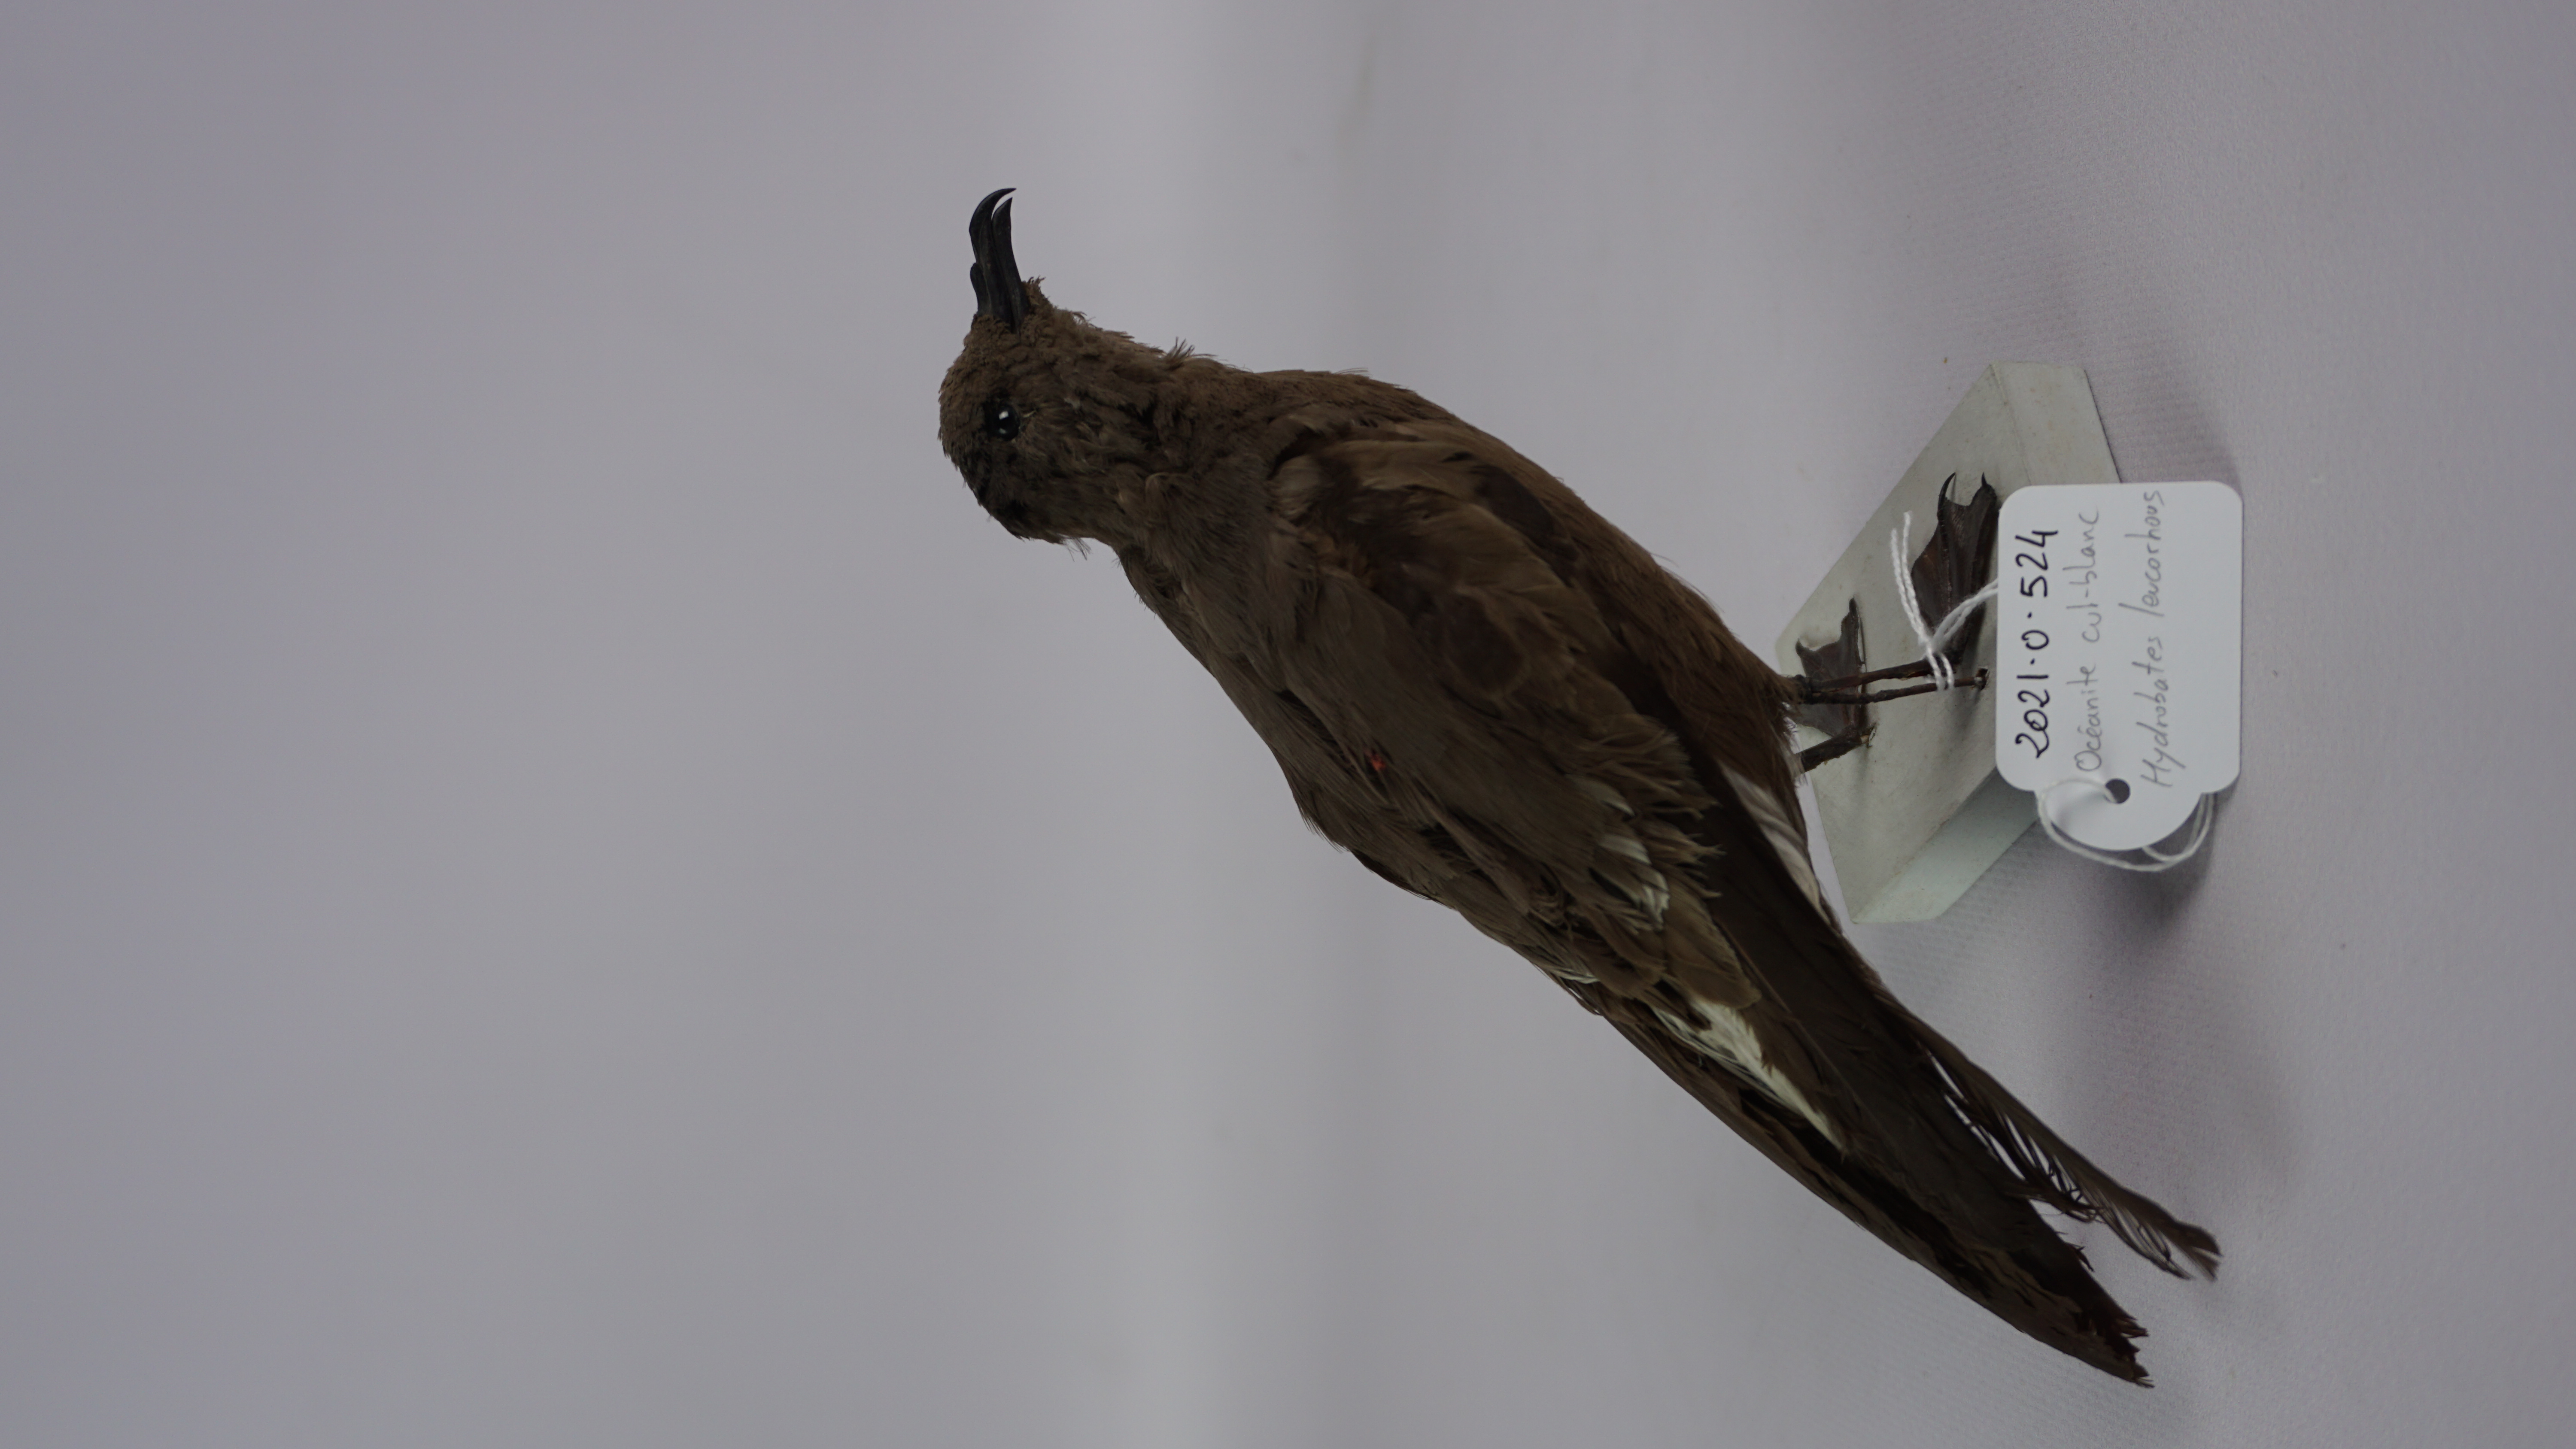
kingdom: Animalia
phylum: Chordata
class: Aves
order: Procellariiformes
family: Hydrobatidae
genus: Oceanodroma
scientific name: Oceanodroma leucorhoa
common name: Leach's storm-petrel
